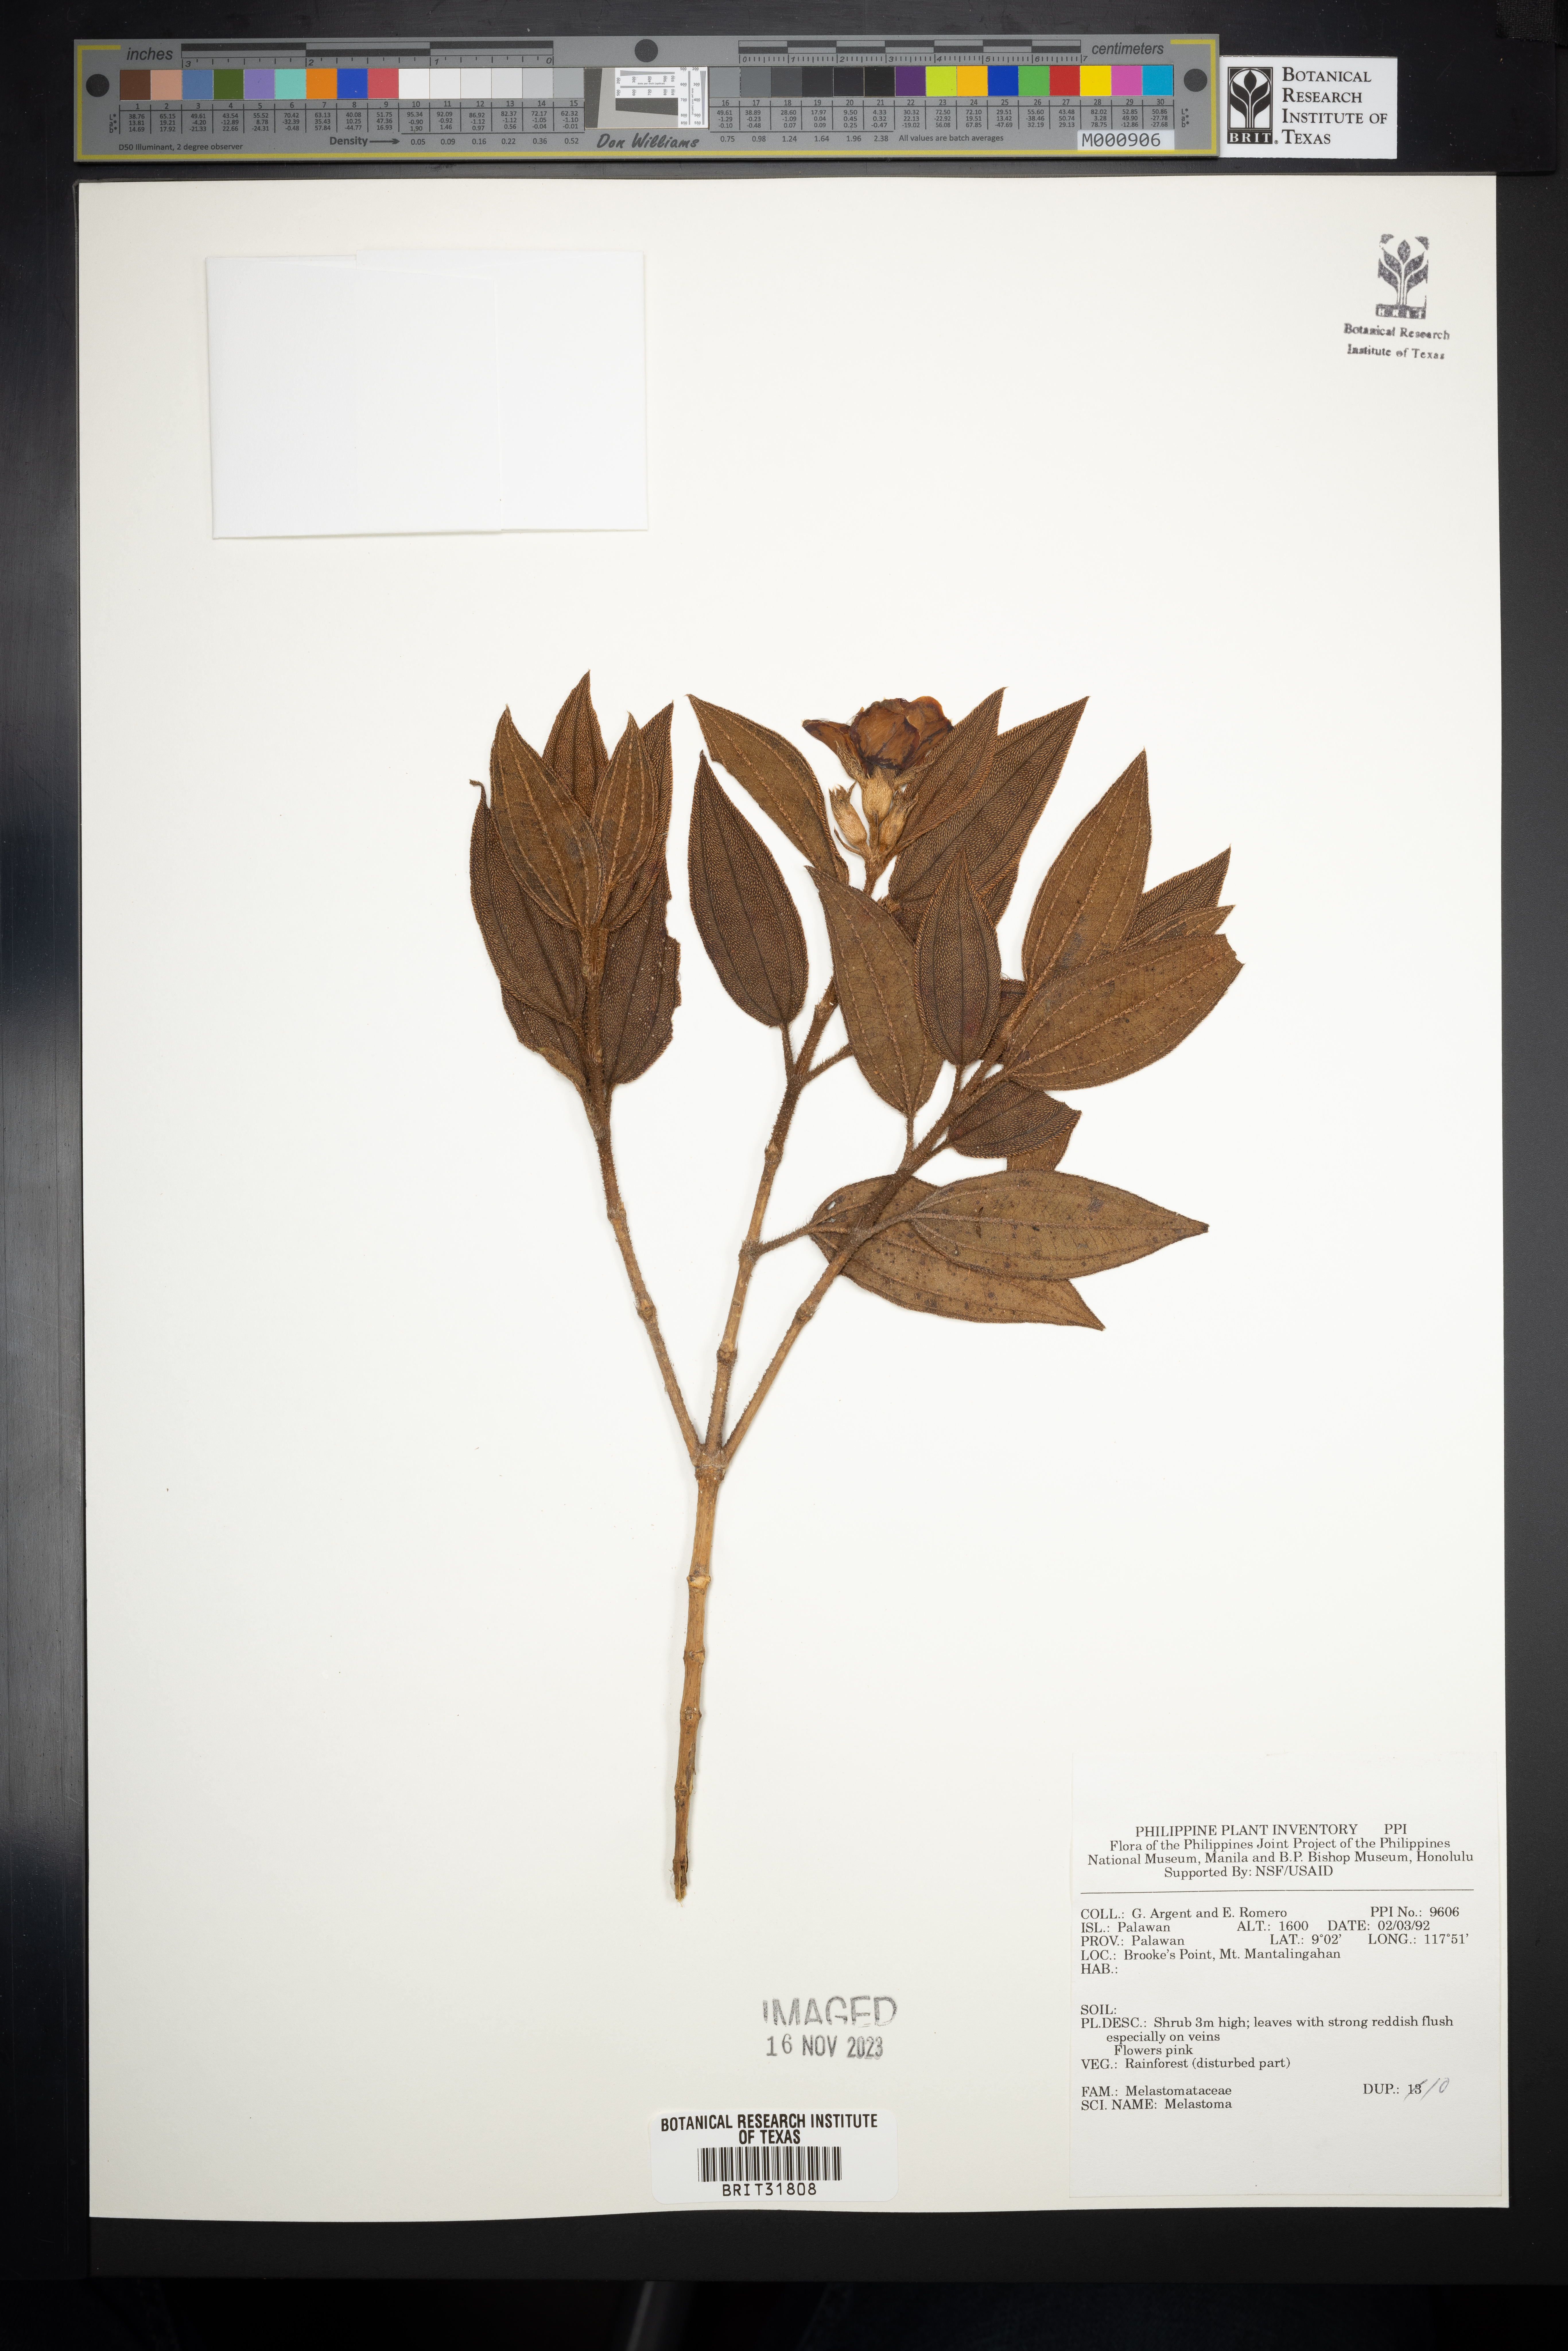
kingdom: Plantae
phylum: Tracheophyta
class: Magnoliopsida
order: Myrtales
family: Melastomataceae
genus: Melastoma
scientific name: Melastoma
